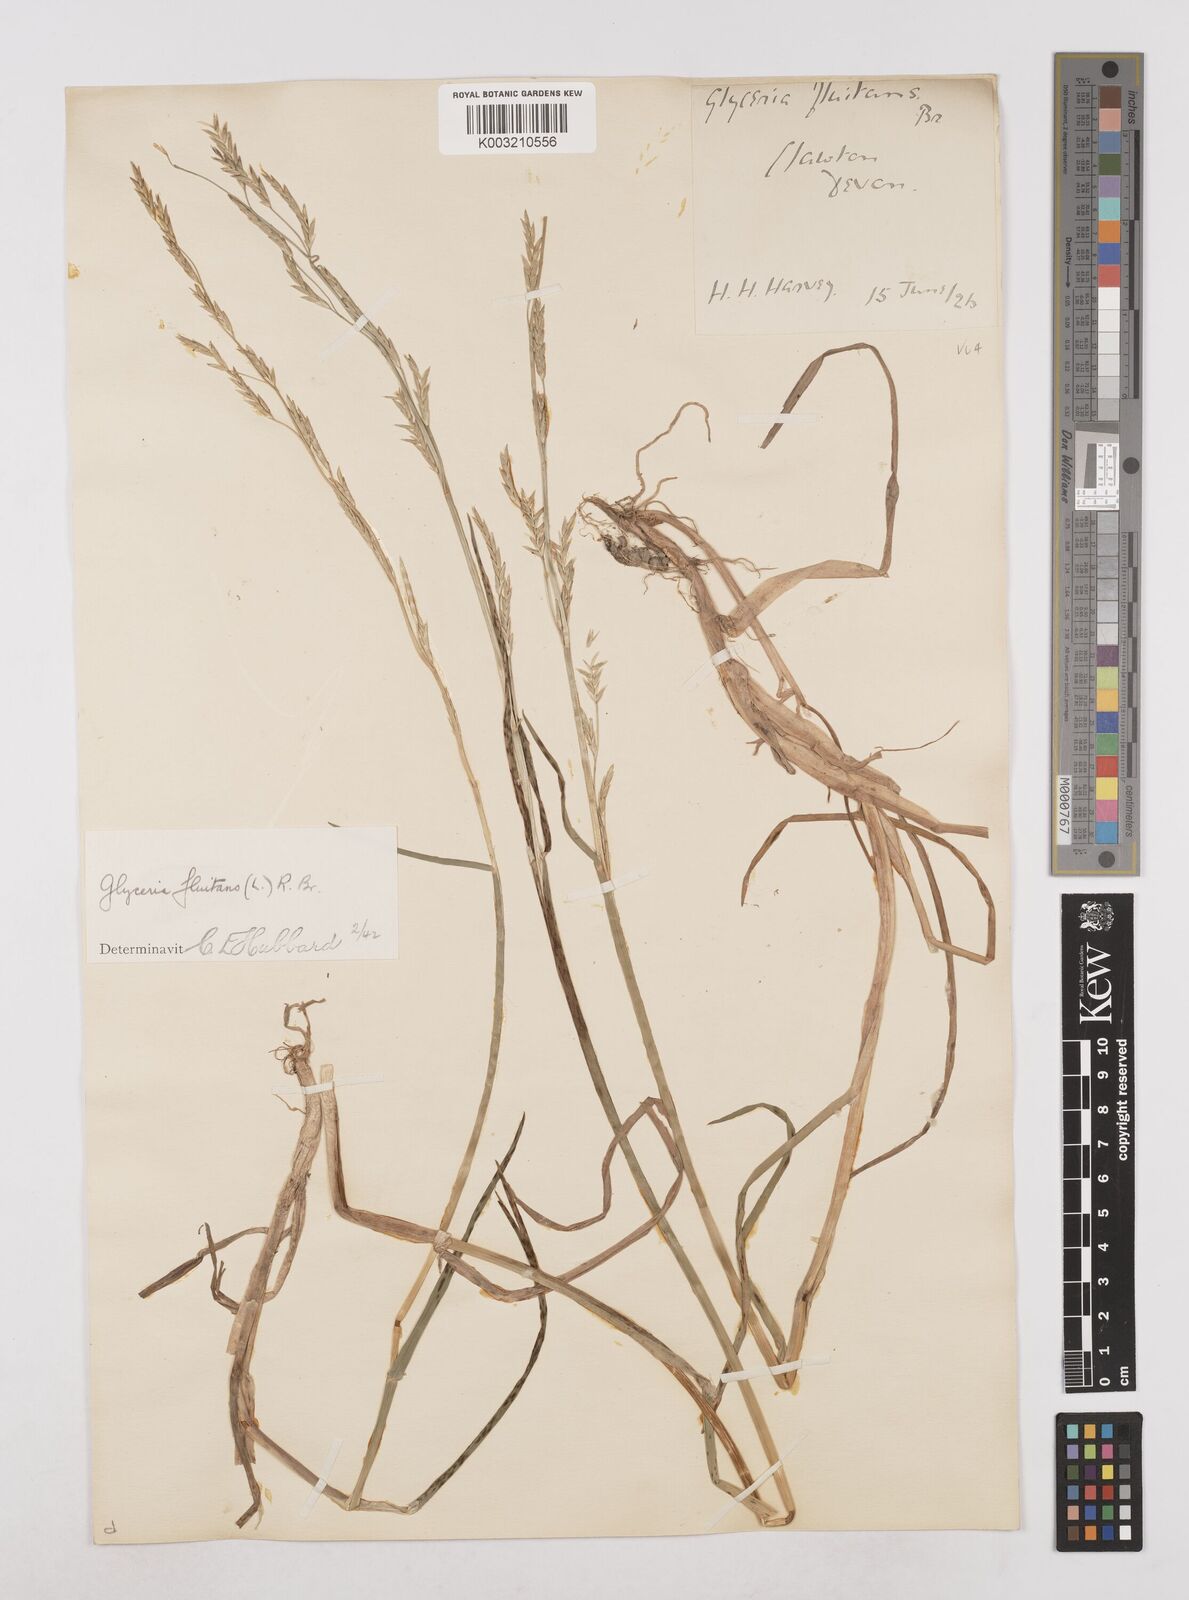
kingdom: Plantae
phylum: Tracheophyta
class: Liliopsida
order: Poales
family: Poaceae
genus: Glyceria
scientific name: Glyceria fluitans
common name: Floating sweet-grass
